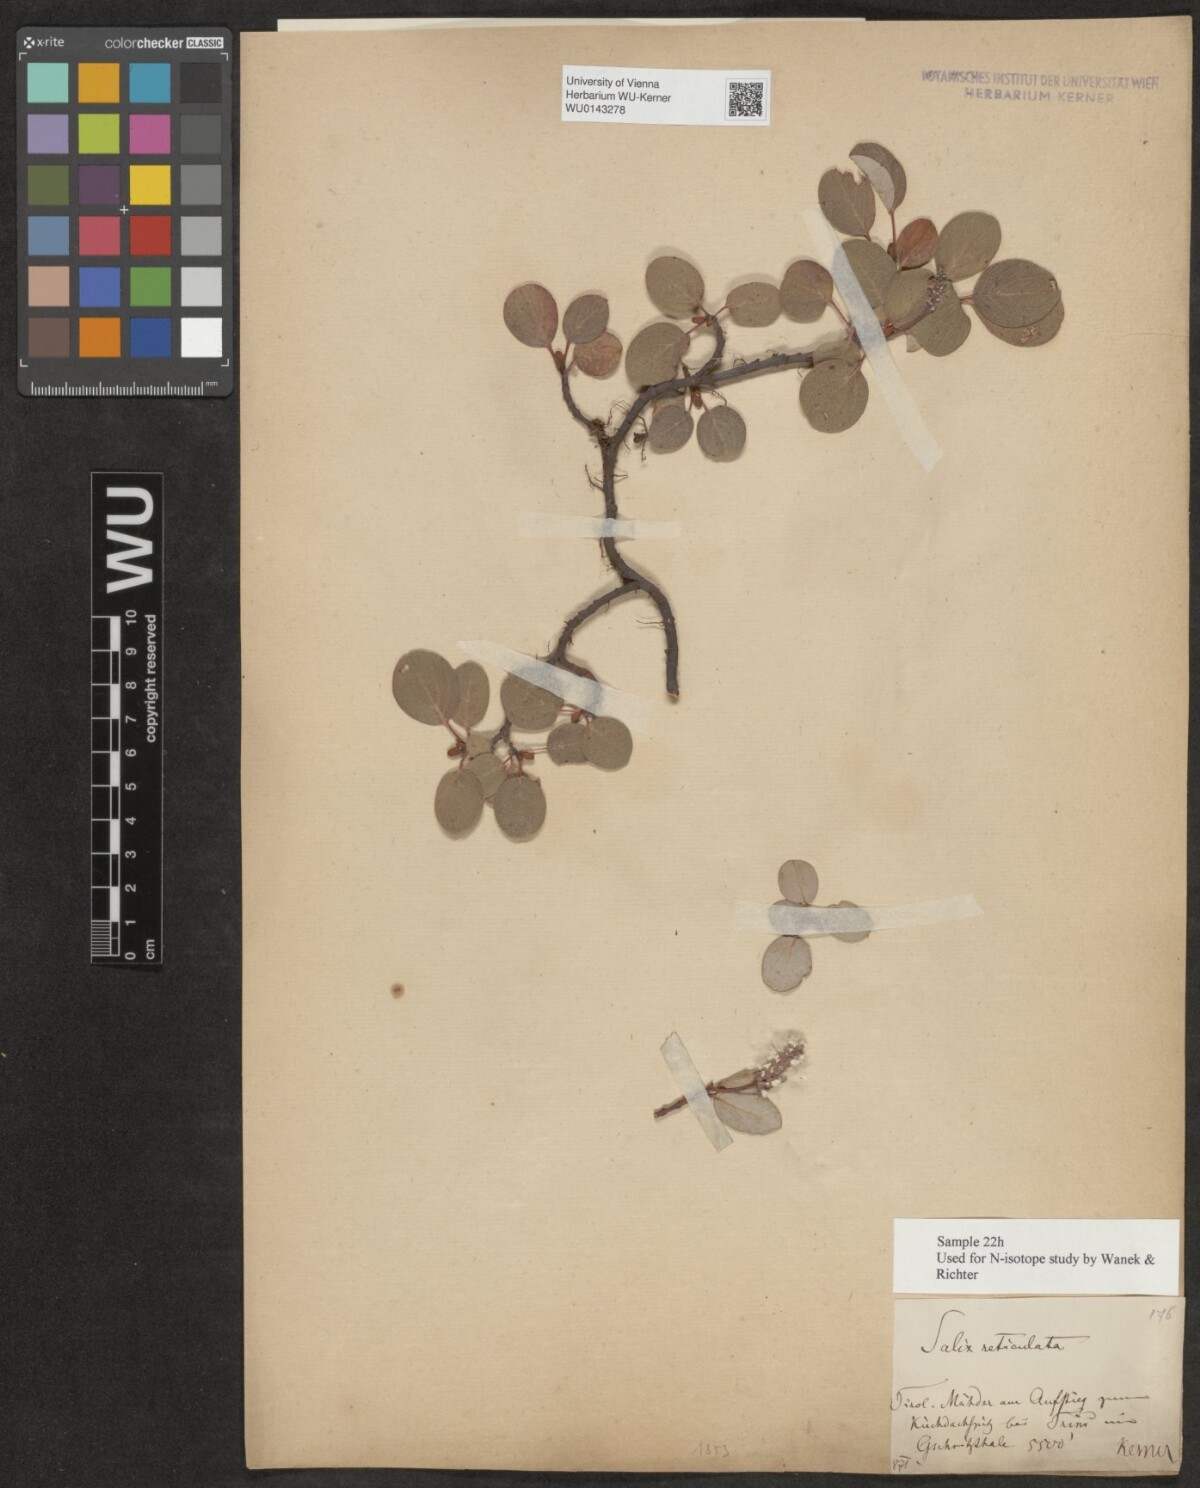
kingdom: Plantae
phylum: Tracheophyta
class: Magnoliopsida
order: Malpighiales
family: Salicaceae
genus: Salix
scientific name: Salix reticulata
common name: Net-leaved willow
